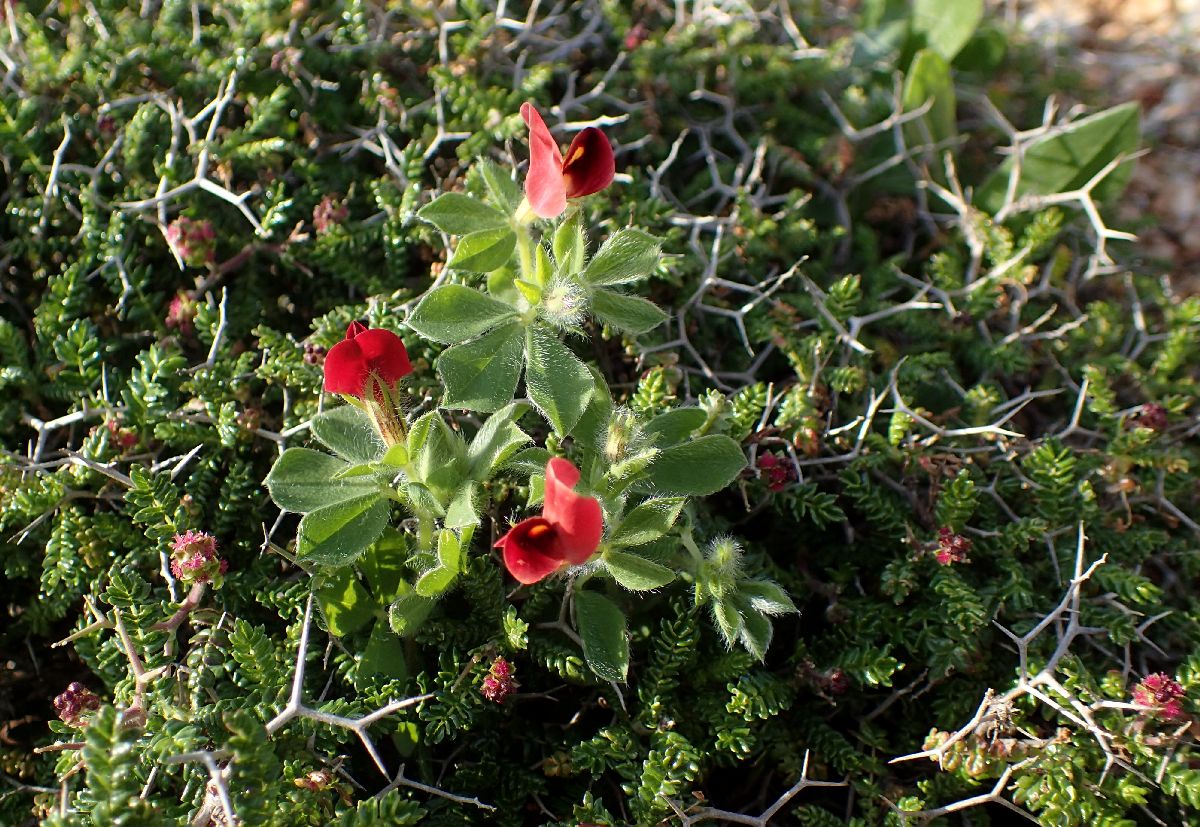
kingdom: Plantae
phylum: Tracheophyta
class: Magnoliopsida
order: Fabales
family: Fabaceae
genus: Lotus
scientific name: Lotus tetragonolobus
